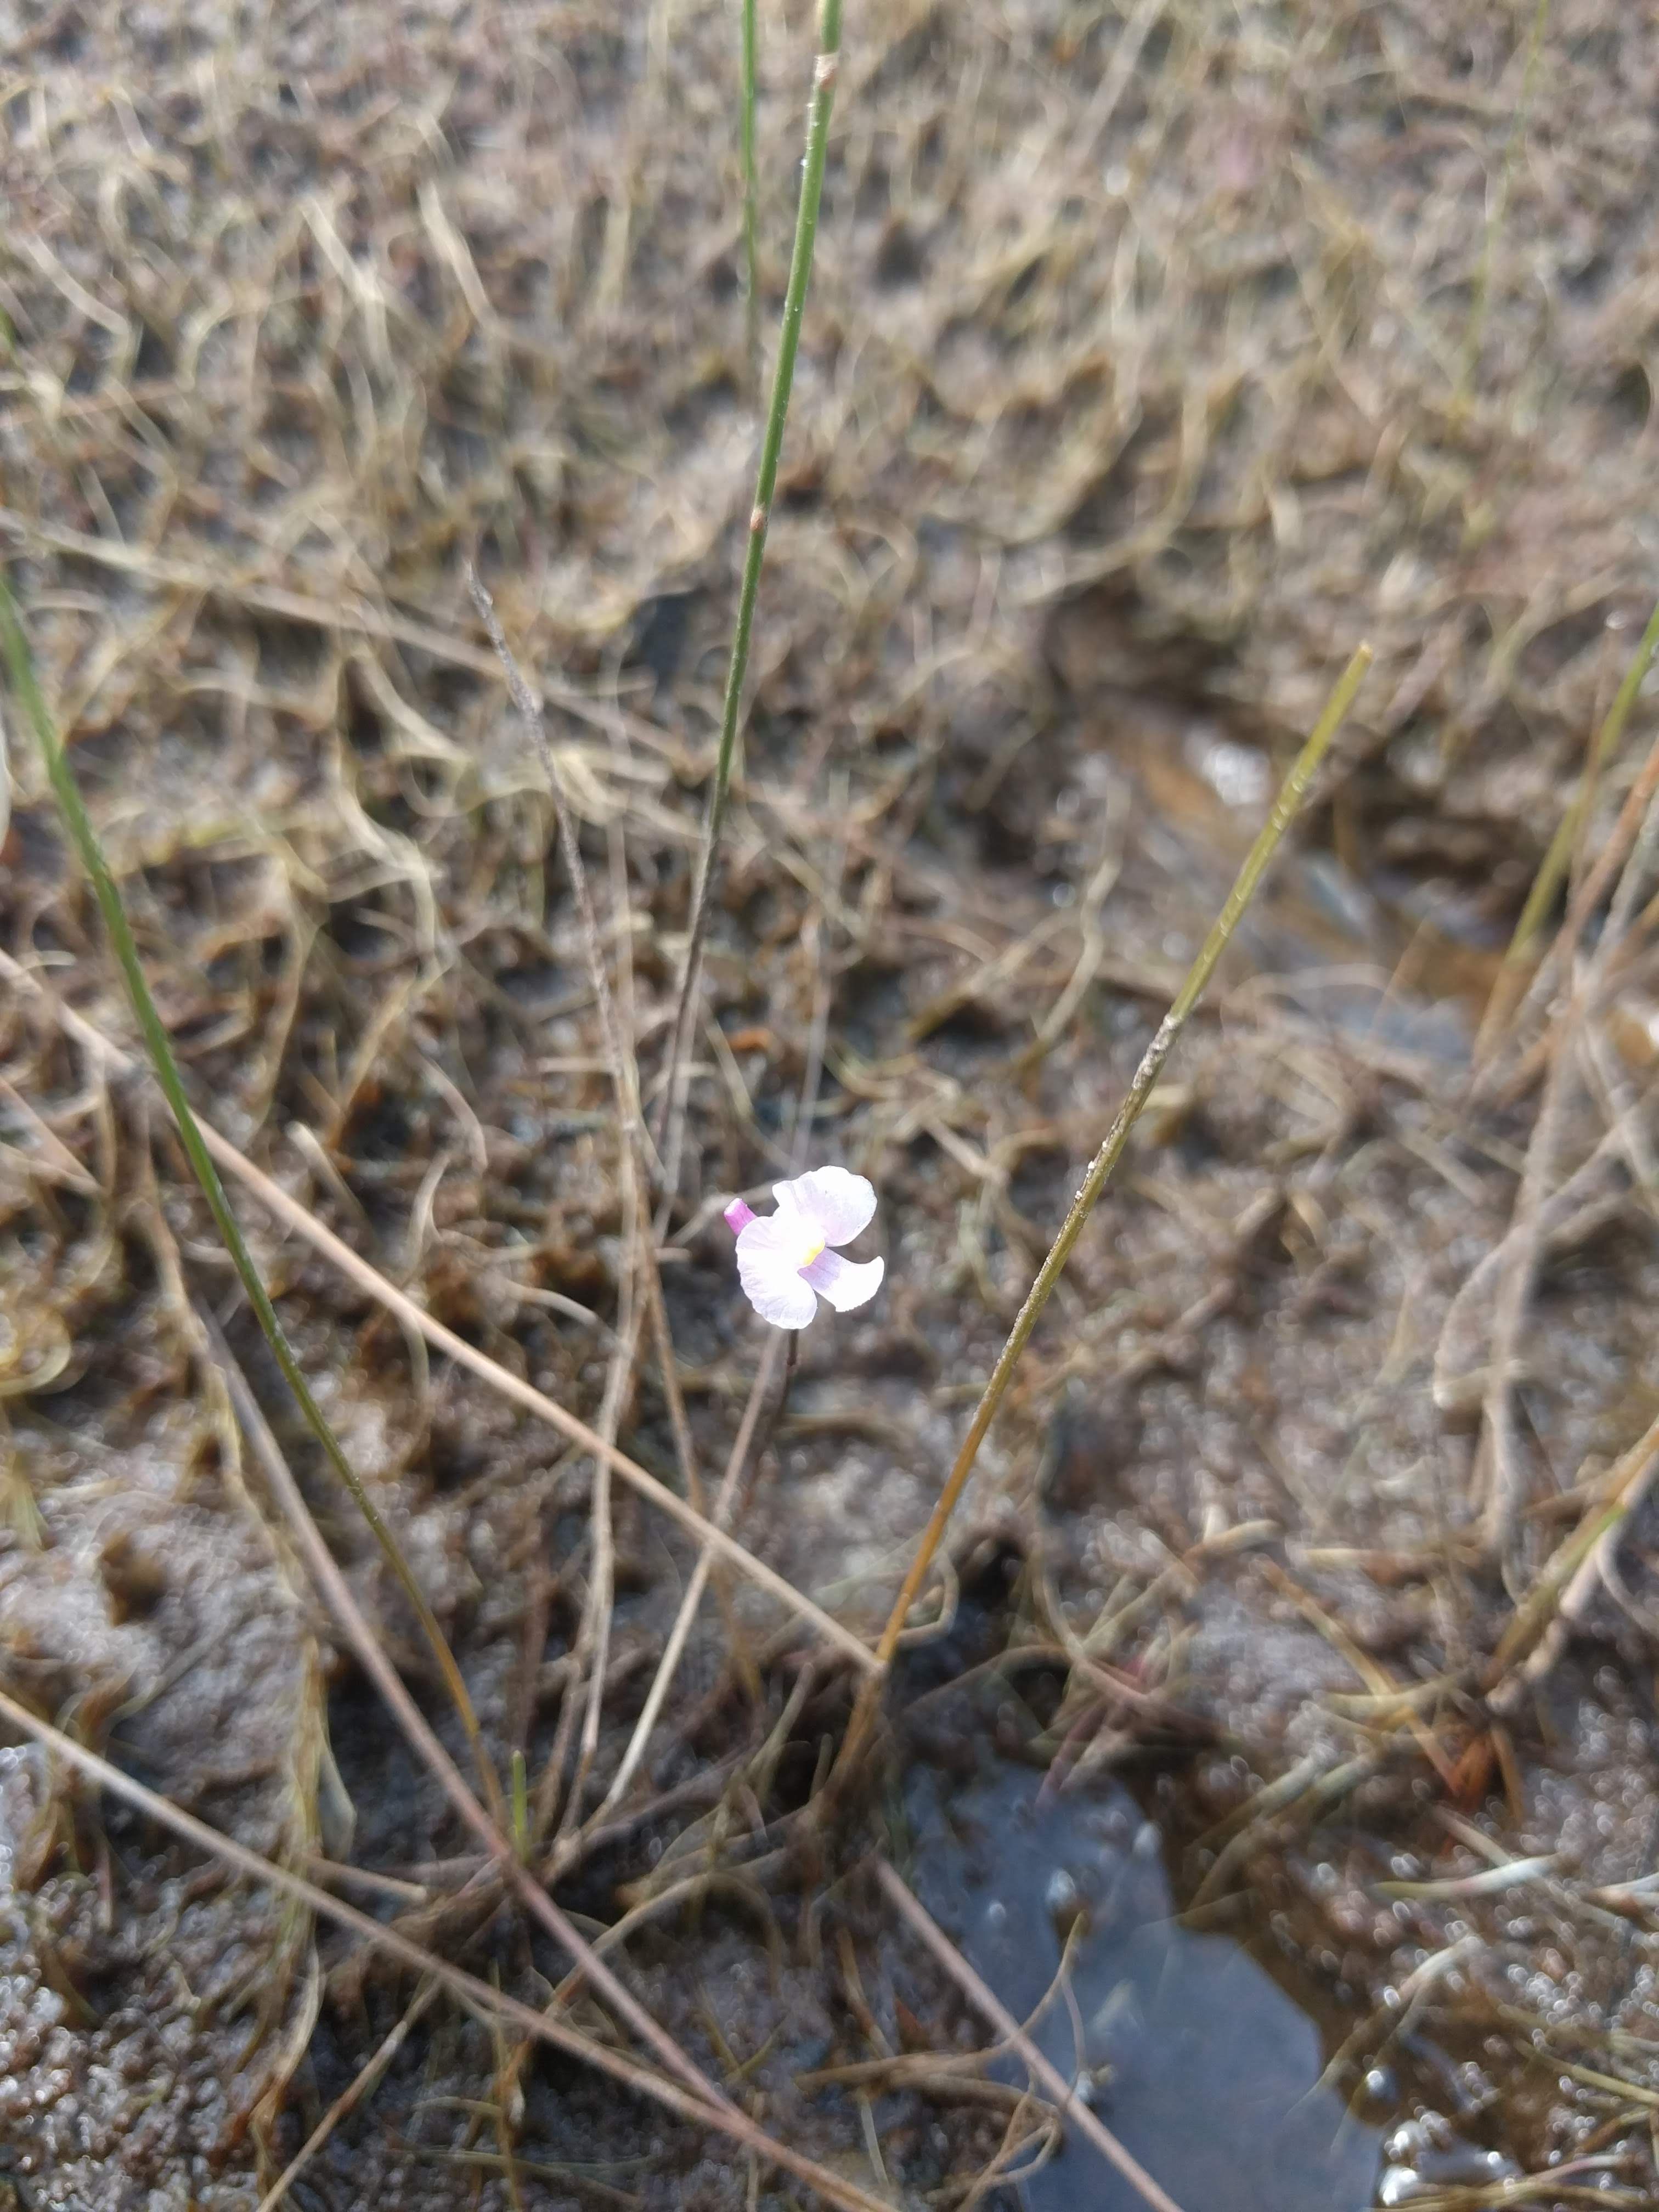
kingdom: Plantae
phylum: Tracheophyta
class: Magnoliopsida
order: Lamiales
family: Lentibulariaceae
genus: Utricularia
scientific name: Utricularia resupinata
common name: Northeastern bladderwort
